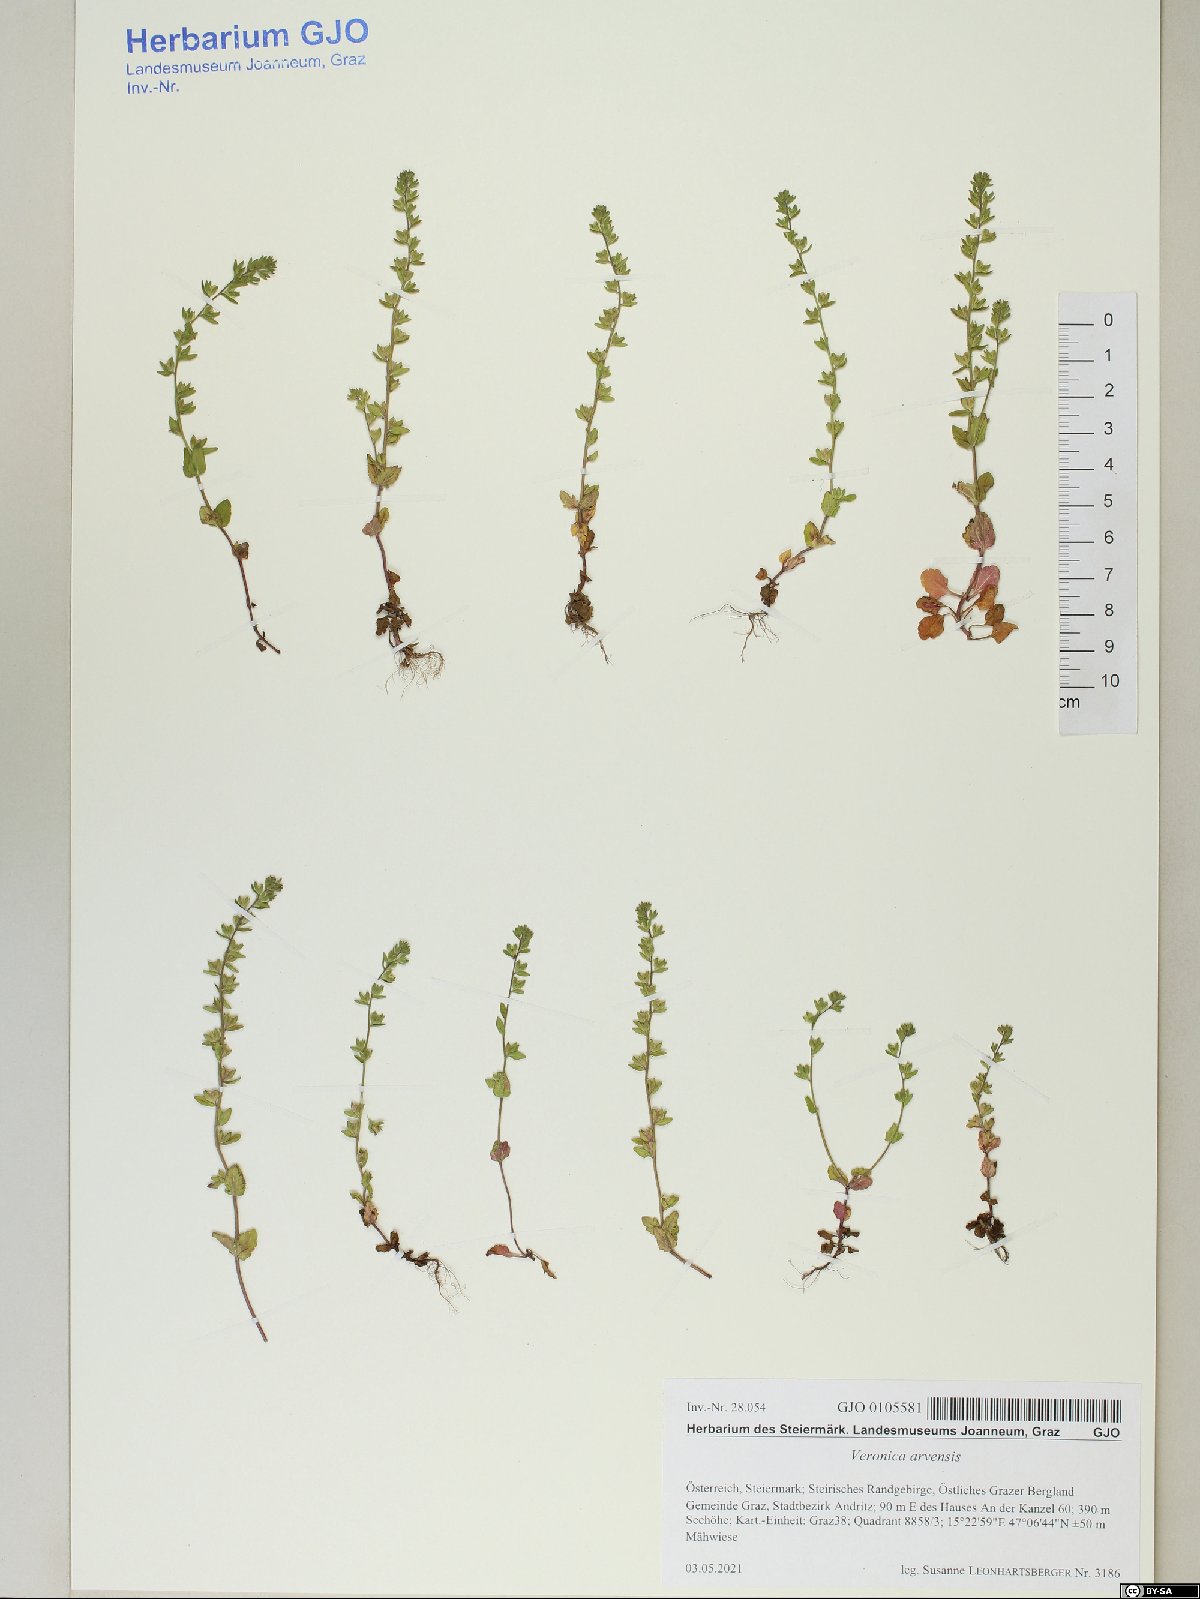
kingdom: Plantae
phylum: Tracheophyta
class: Magnoliopsida
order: Lamiales
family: Plantaginaceae
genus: Veronica
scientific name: Veronica arvensis
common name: Corn speedwell
